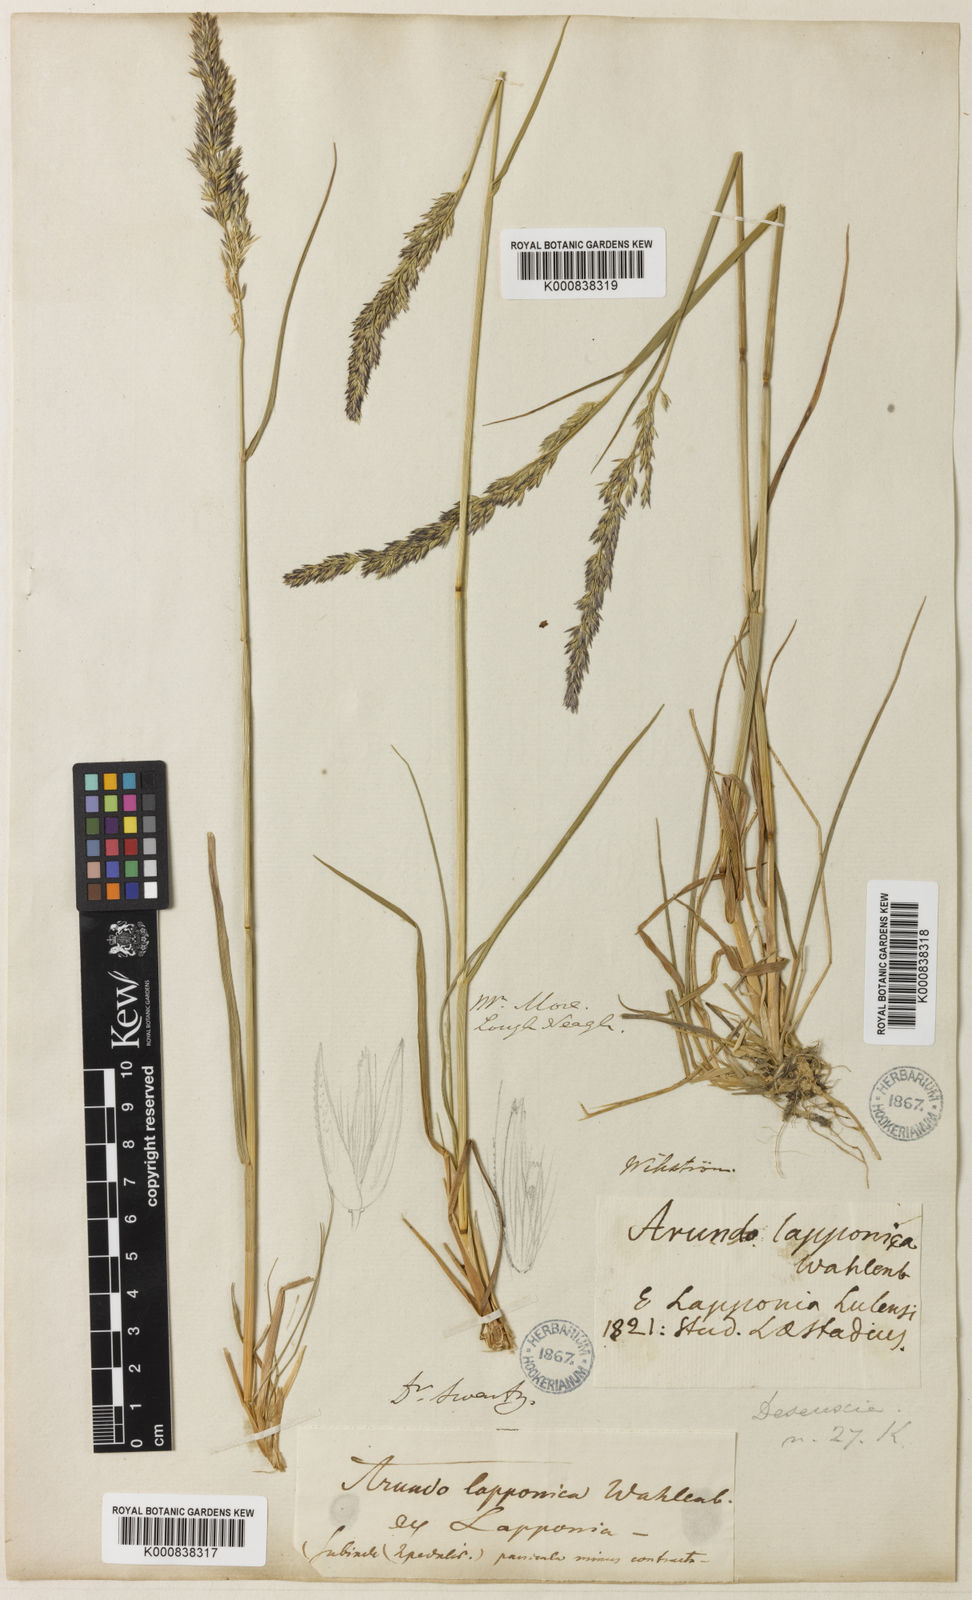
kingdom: Plantae
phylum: Tracheophyta
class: Liliopsida
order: Poales
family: Poaceae
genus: Calamagrostis
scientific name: Calamagrostis lapponica
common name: Lapland reedgrass
